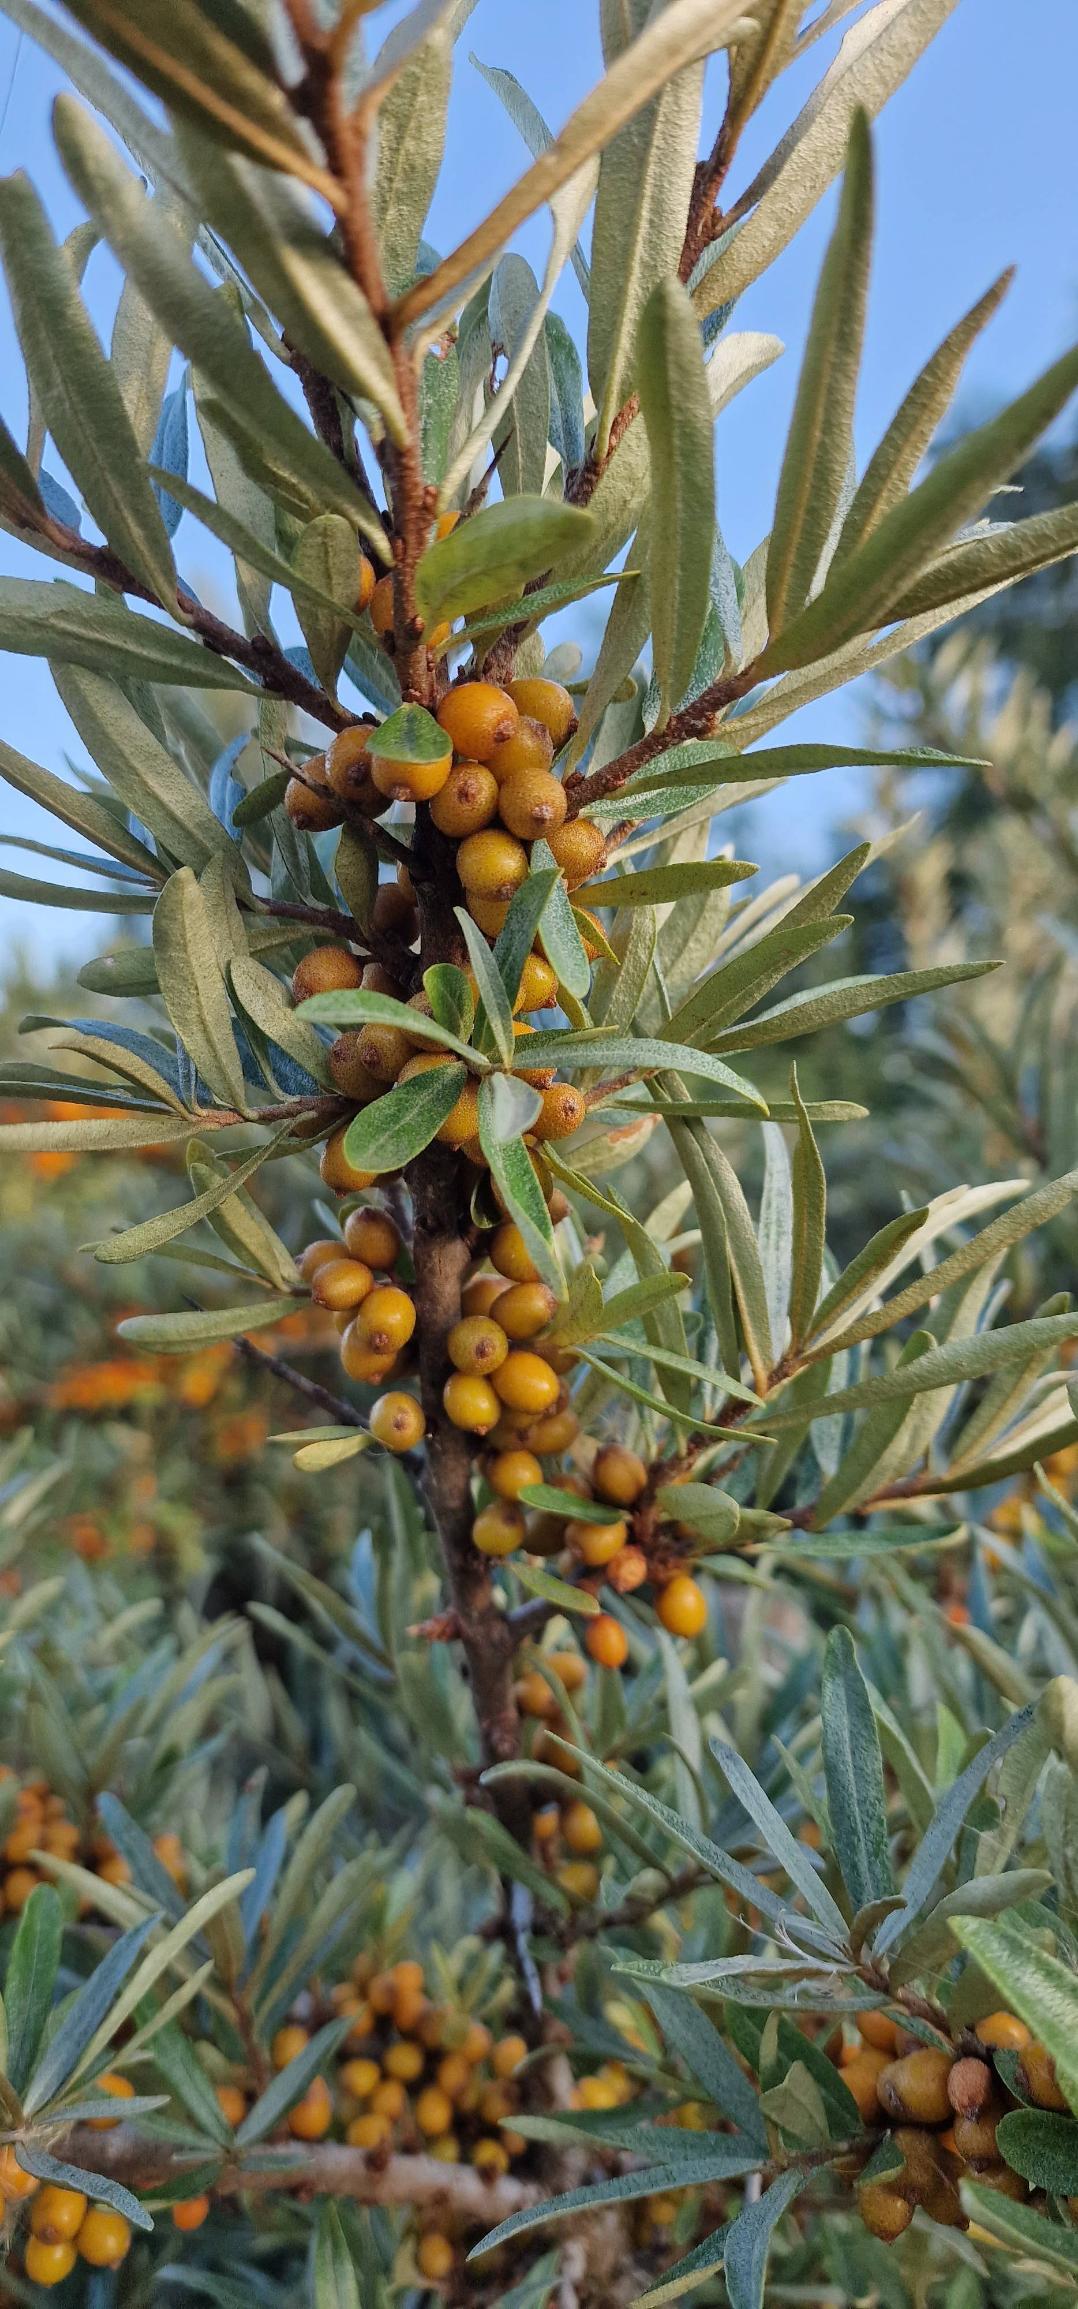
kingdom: Plantae
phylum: Tracheophyta
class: Magnoliopsida
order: Rosales
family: Elaeagnaceae
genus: Hippophae
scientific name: Hippophae rhamnoides
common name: Havtorn
